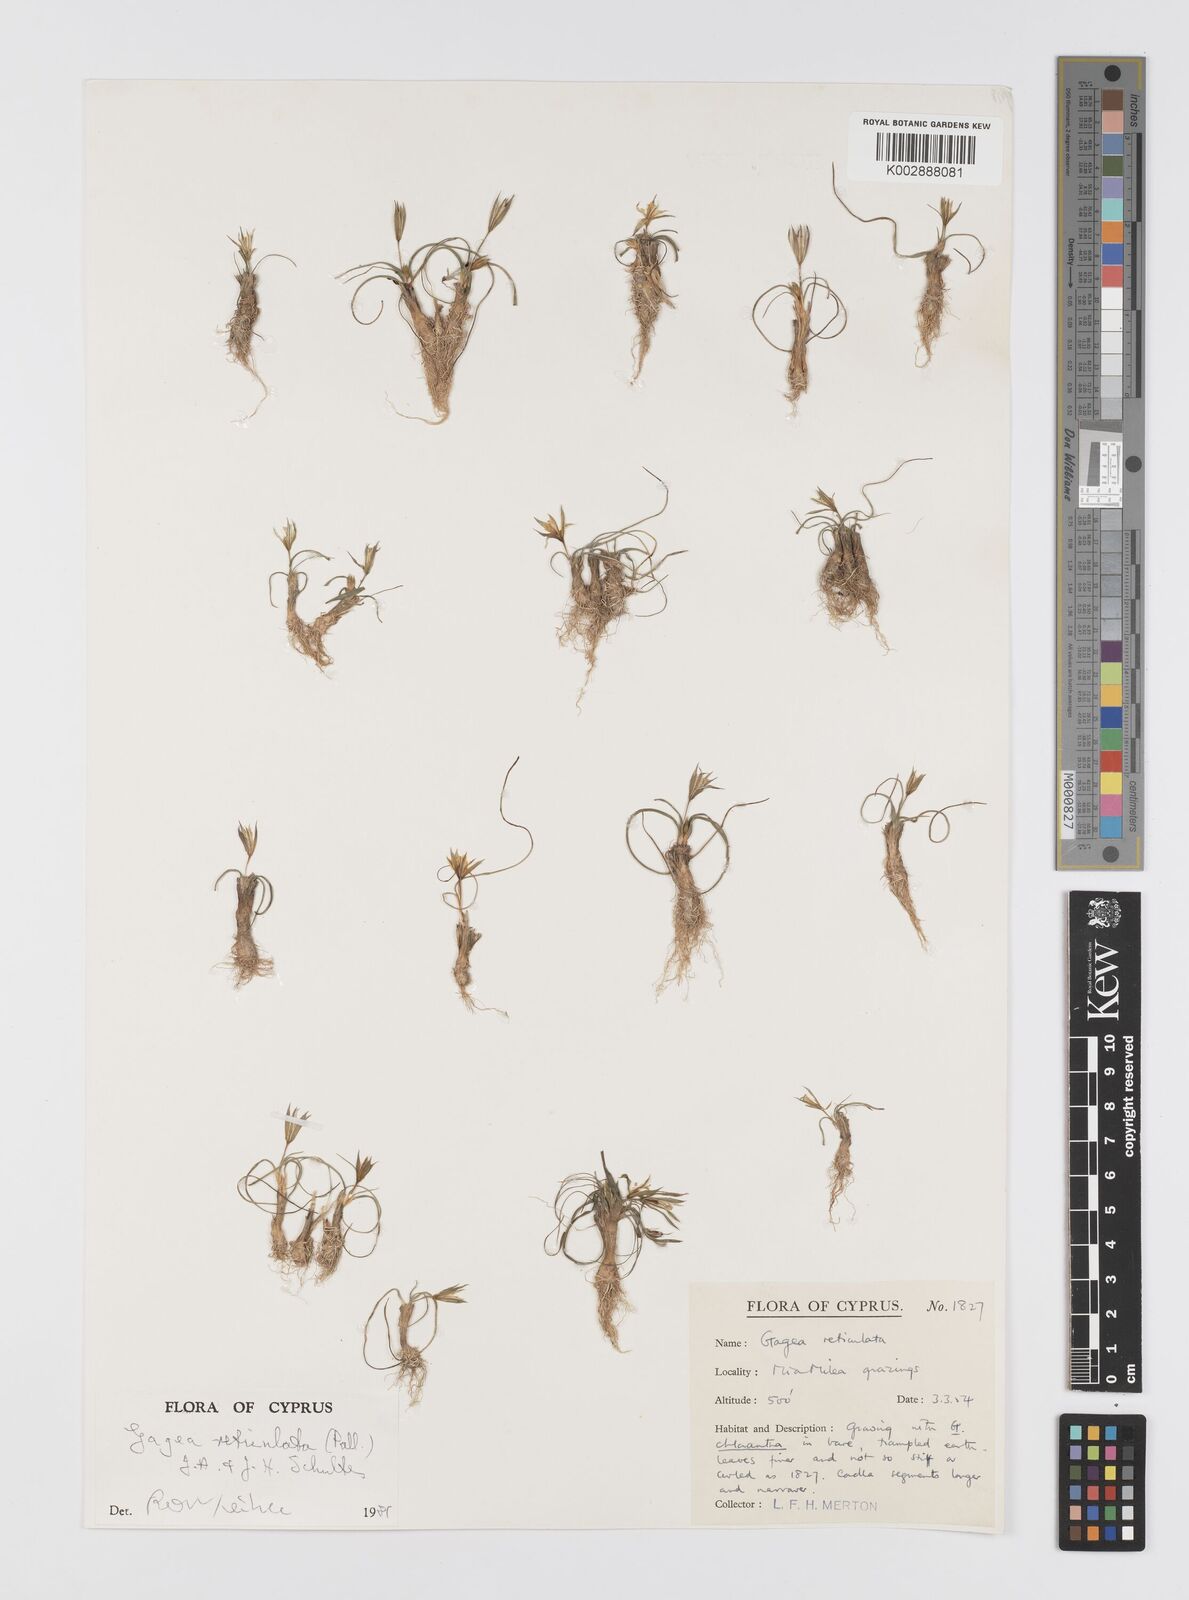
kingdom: Plantae
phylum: Tracheophyta
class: Liliopsida
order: Liliales
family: Liliaceae
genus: Gagea
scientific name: Gagea reticulata
